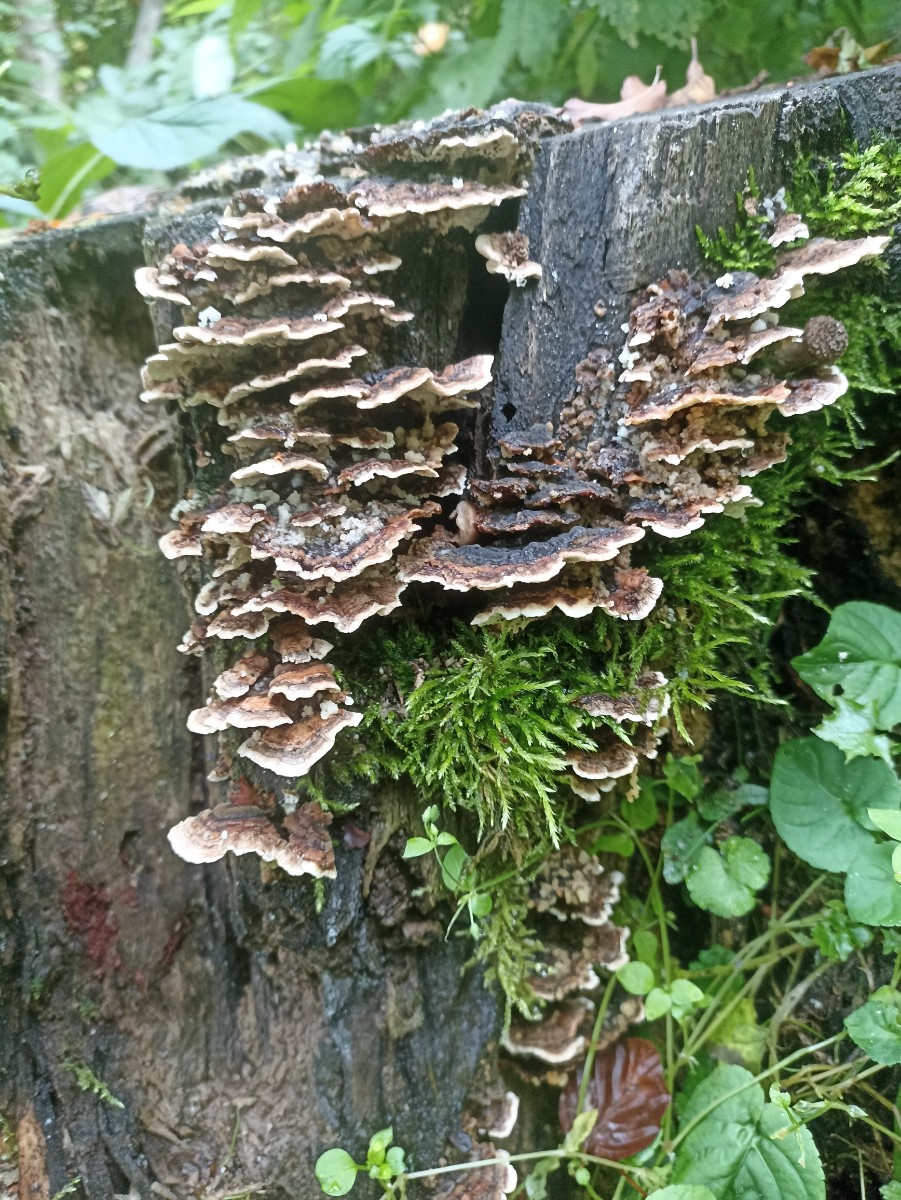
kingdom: Fungi
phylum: Basidiomycota
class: Agaricomycetes
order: Polyporales
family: Polyporaceae
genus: Trametes
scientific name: Trametes versicolor
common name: broget læderporesvamp
